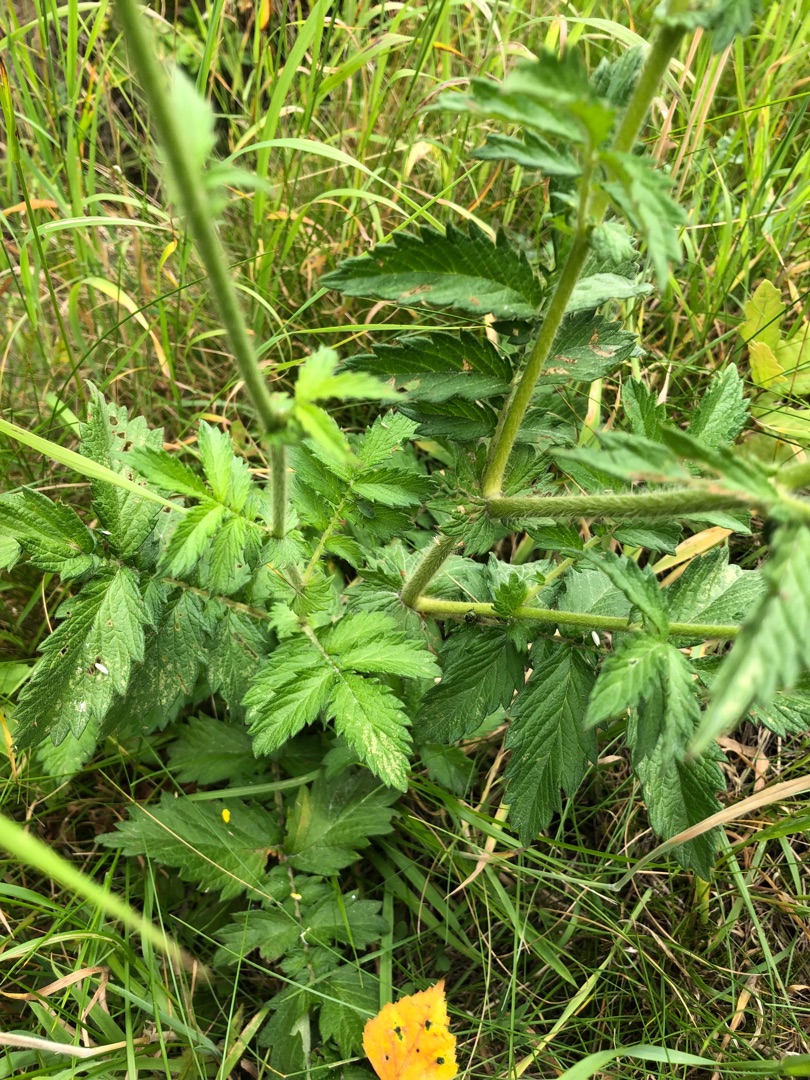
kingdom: Plantae
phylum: Tracheophyta
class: Magnoliopsida
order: Rosales
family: Rosaceae
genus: Agrimonia
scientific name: Agrimonia eupatoria
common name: Almindelig agermåne
